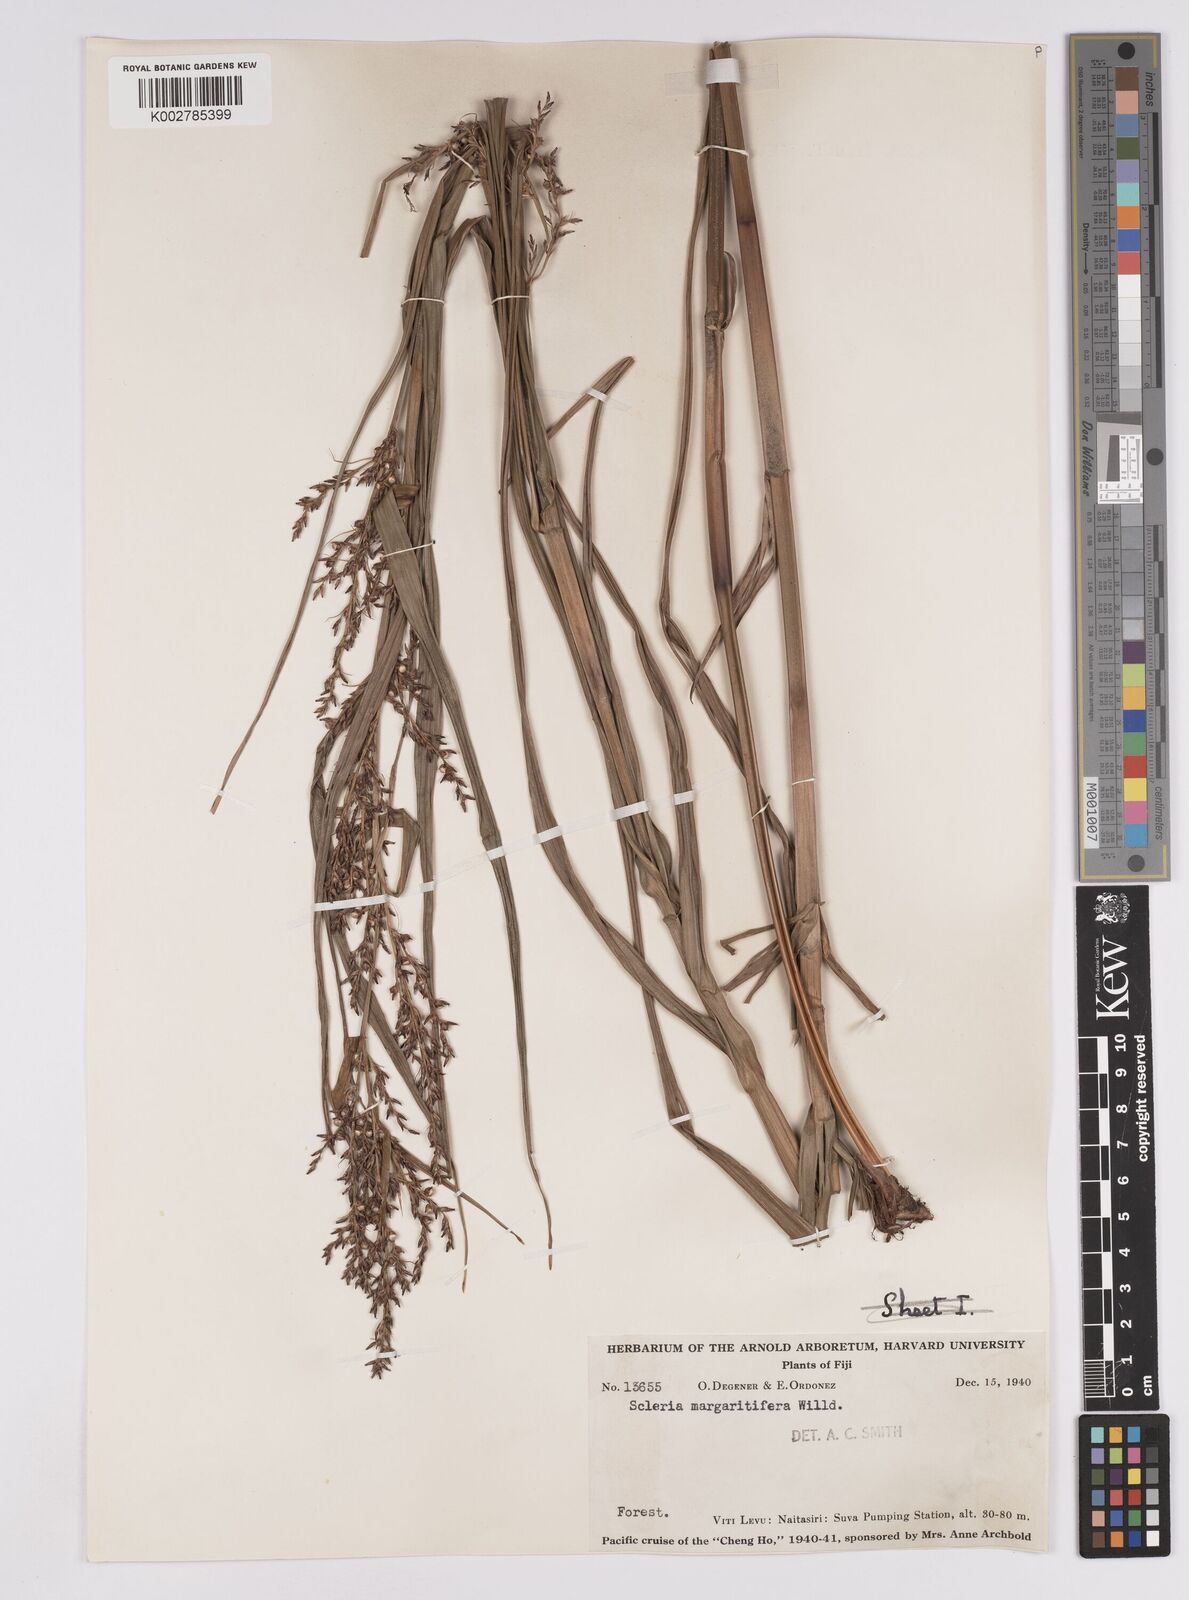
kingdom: Plantae
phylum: Tracheophyta
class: Liliopsida
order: Poales
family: Cyperaceae
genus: Scleria
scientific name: Scleria polycarpa
